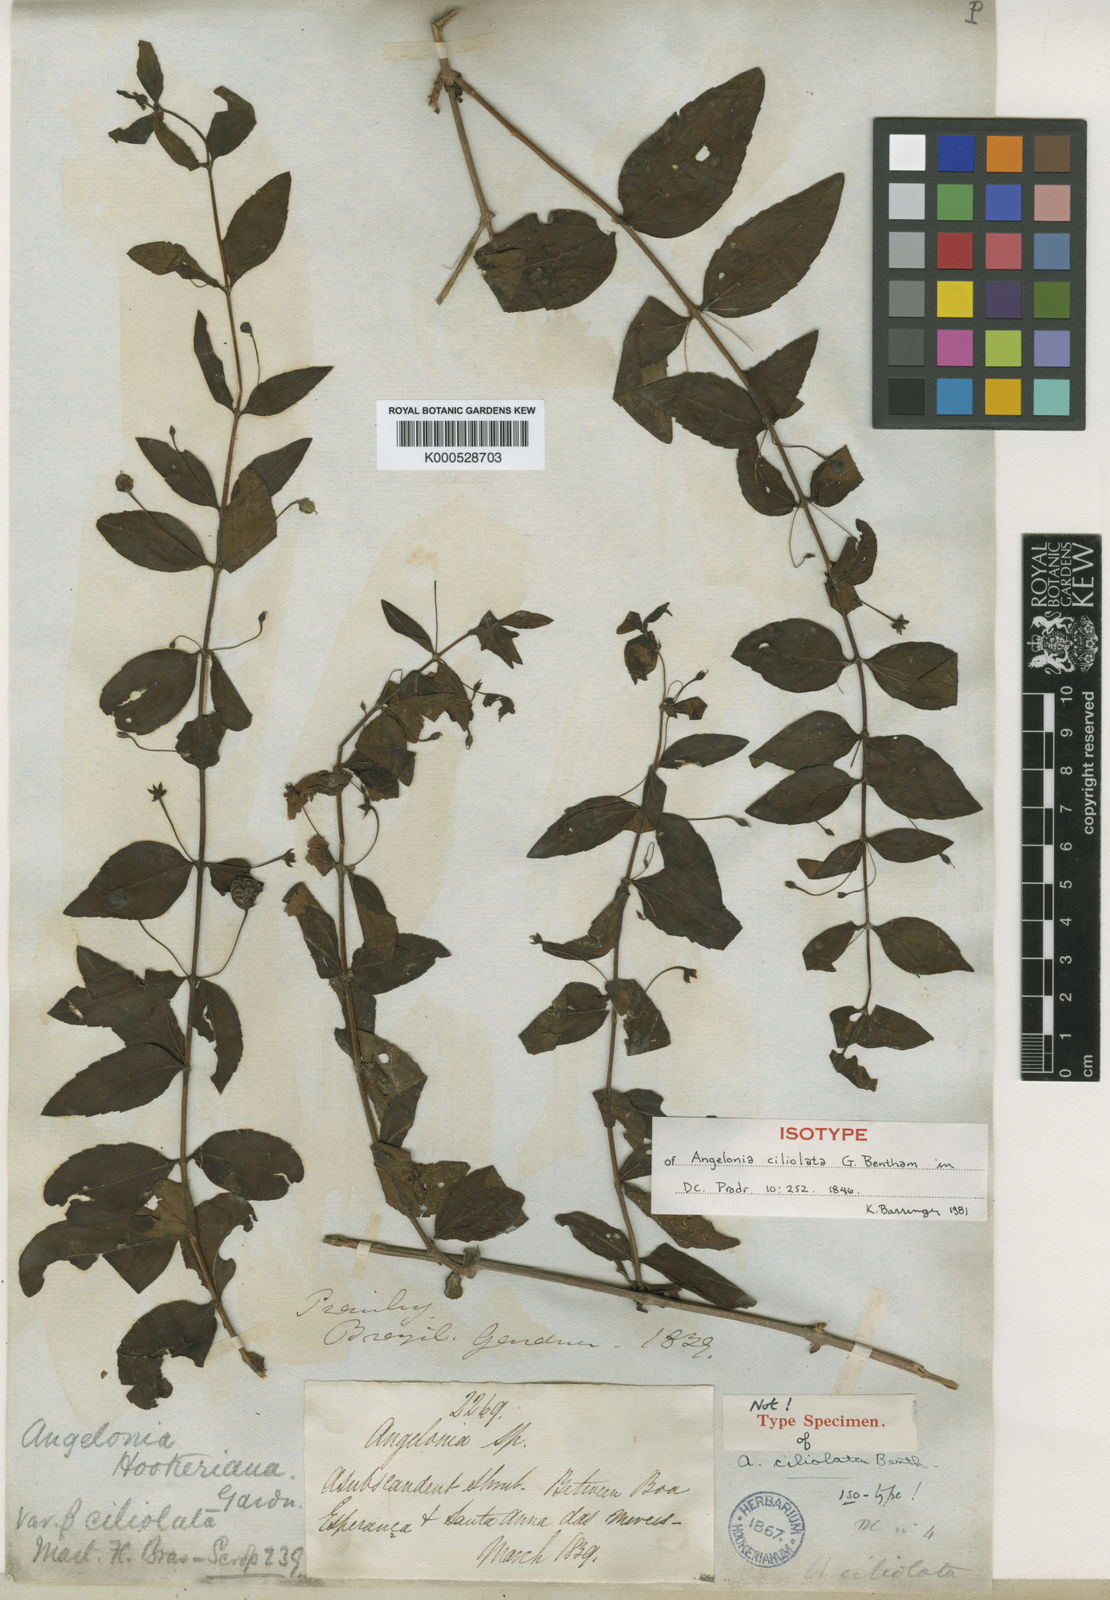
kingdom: Plantae
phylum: Tracheophyta
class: Magnoliopsida
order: Lamiales
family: Plantaginaceae
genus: Angelonia
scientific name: Angelonia campestris
